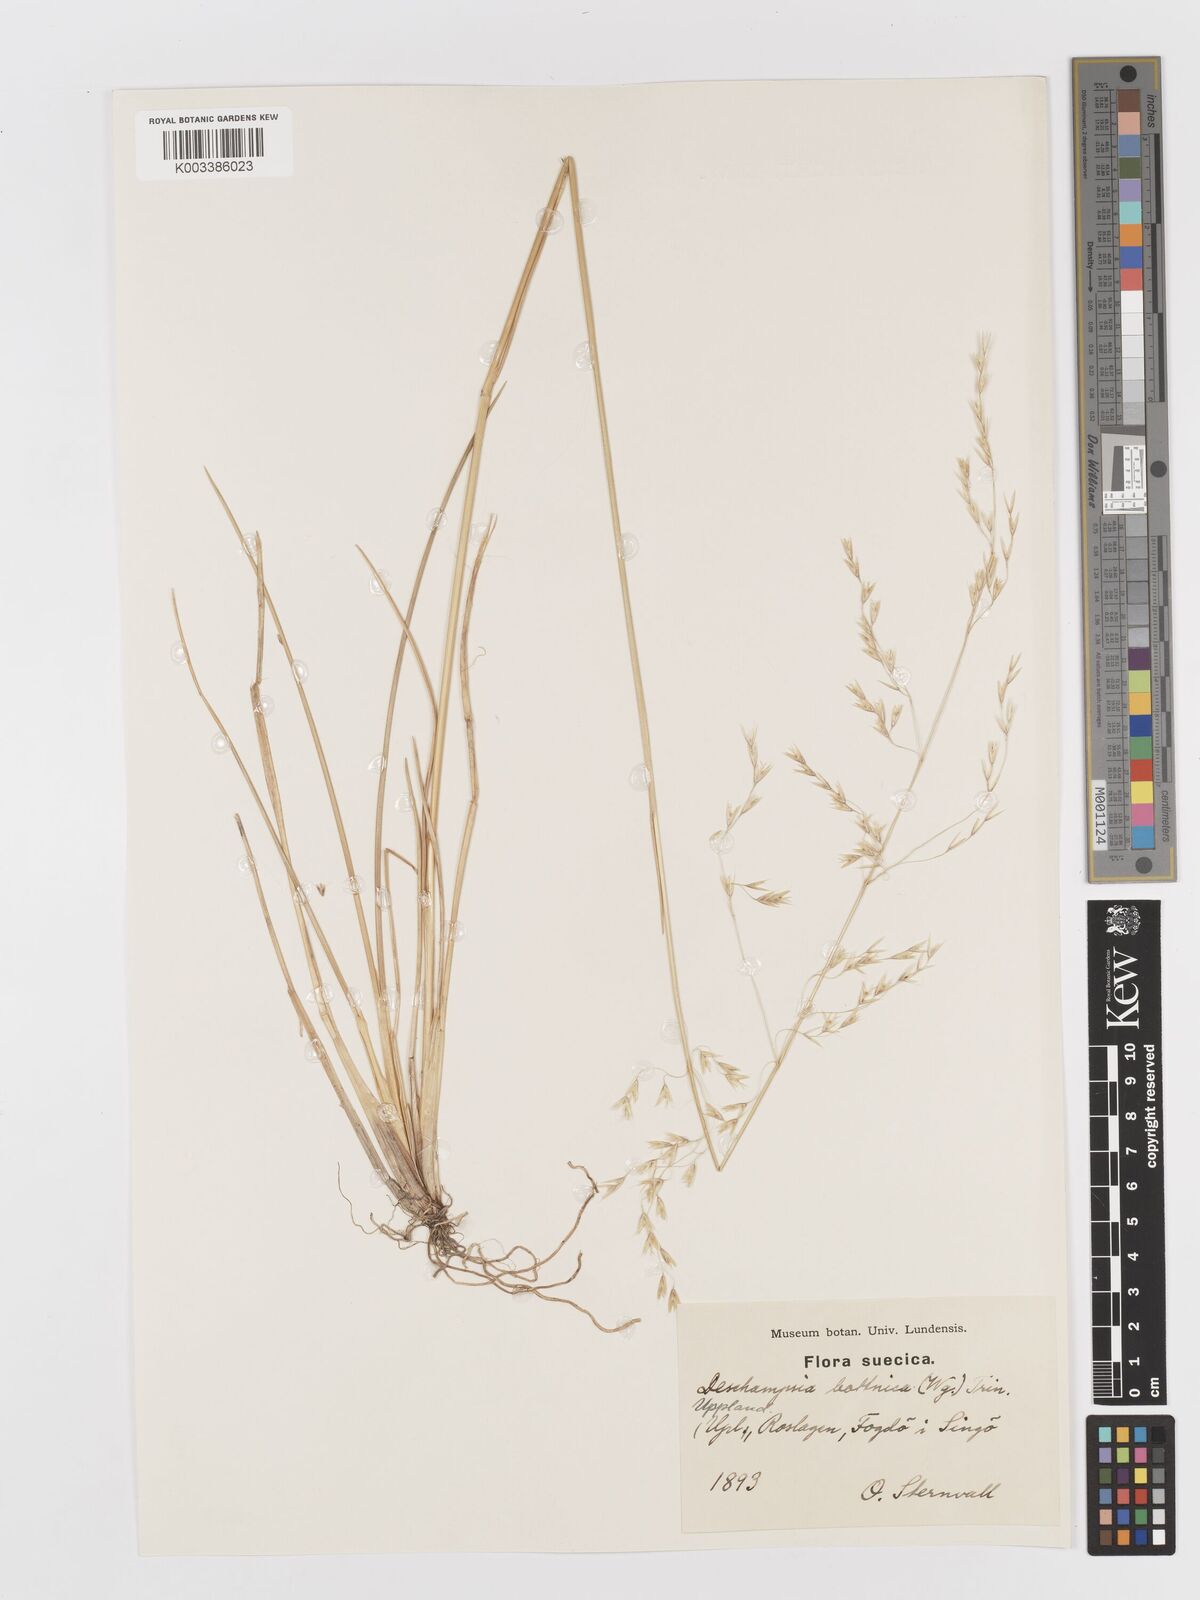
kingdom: Plantae
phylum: Tracheophyta
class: Liliopsida
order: Poales
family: Poaceae
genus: Avenella
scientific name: Avenella flexuosa
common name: Wavy hairgrass
